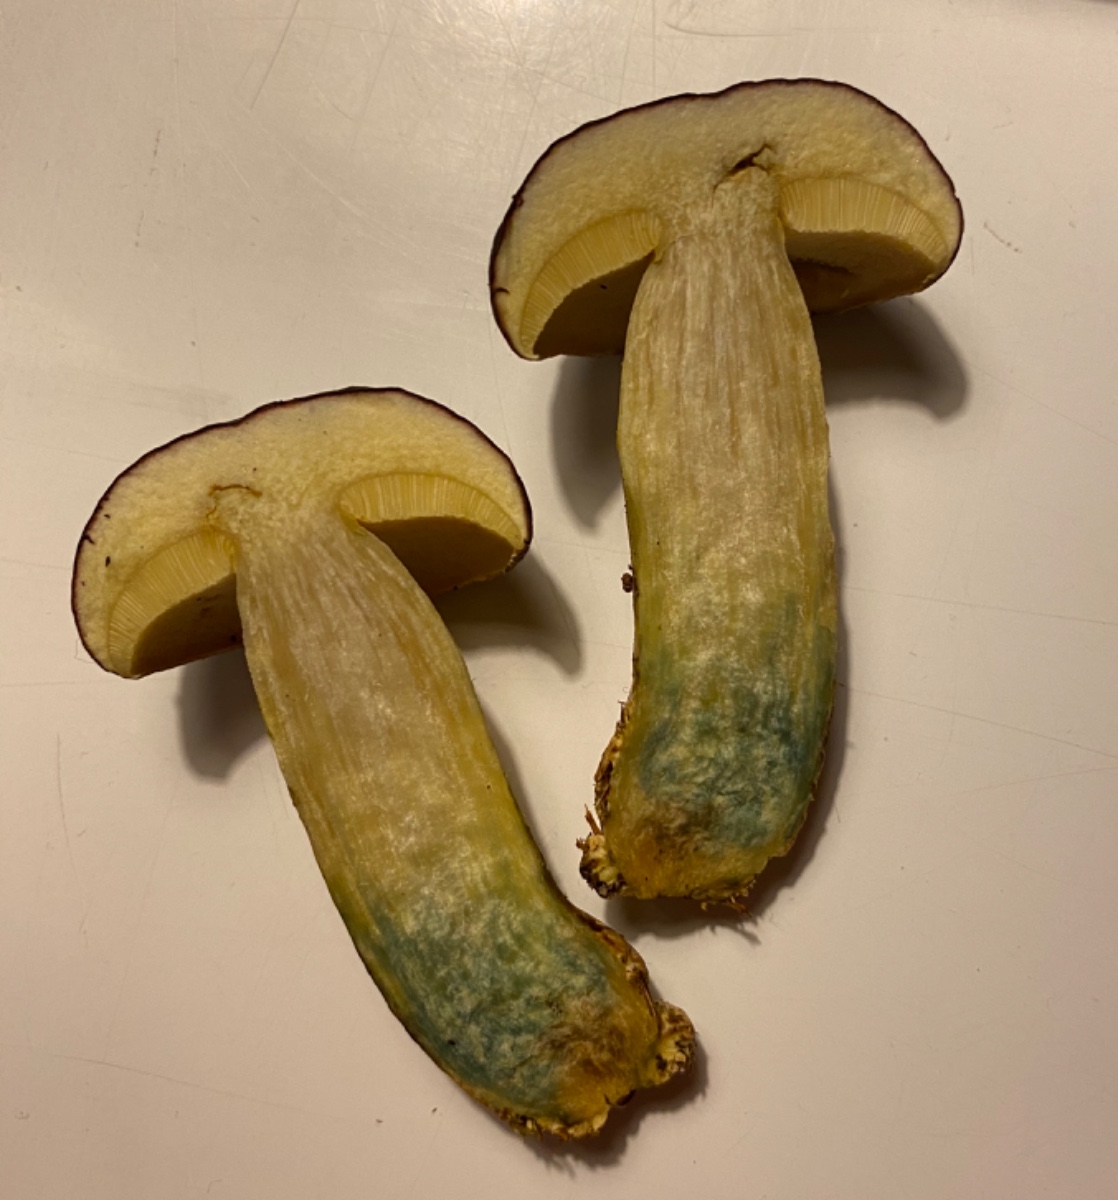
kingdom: Fungi
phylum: Basidiomycota
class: Agaricomycetes
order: Boletales
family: Boletaceae
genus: Xerocomellus
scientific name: Xerocomellus pruinatus
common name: dugget rørhat
